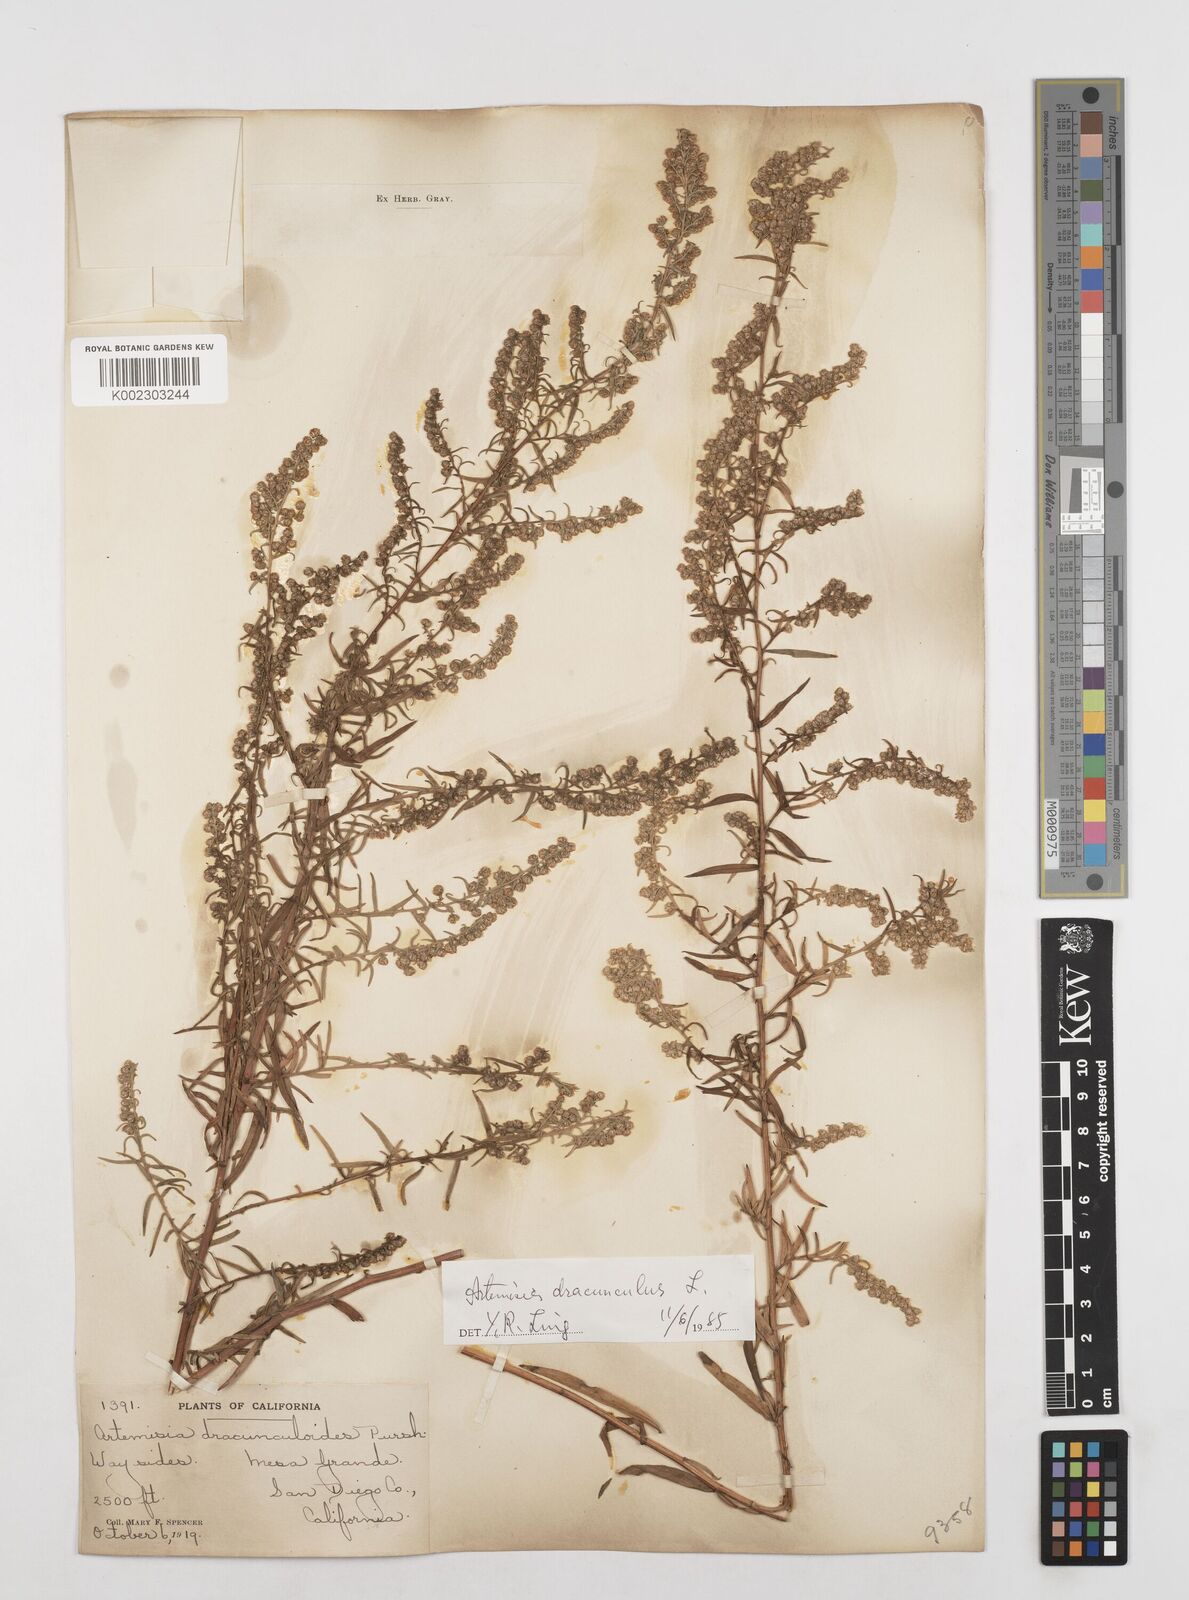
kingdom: Plantae
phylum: Tracheophyta
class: Magnoliopsida
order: Asterales
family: Asteraceae
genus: Artemisia
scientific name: Artemisia dracunculus
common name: Tarragon
